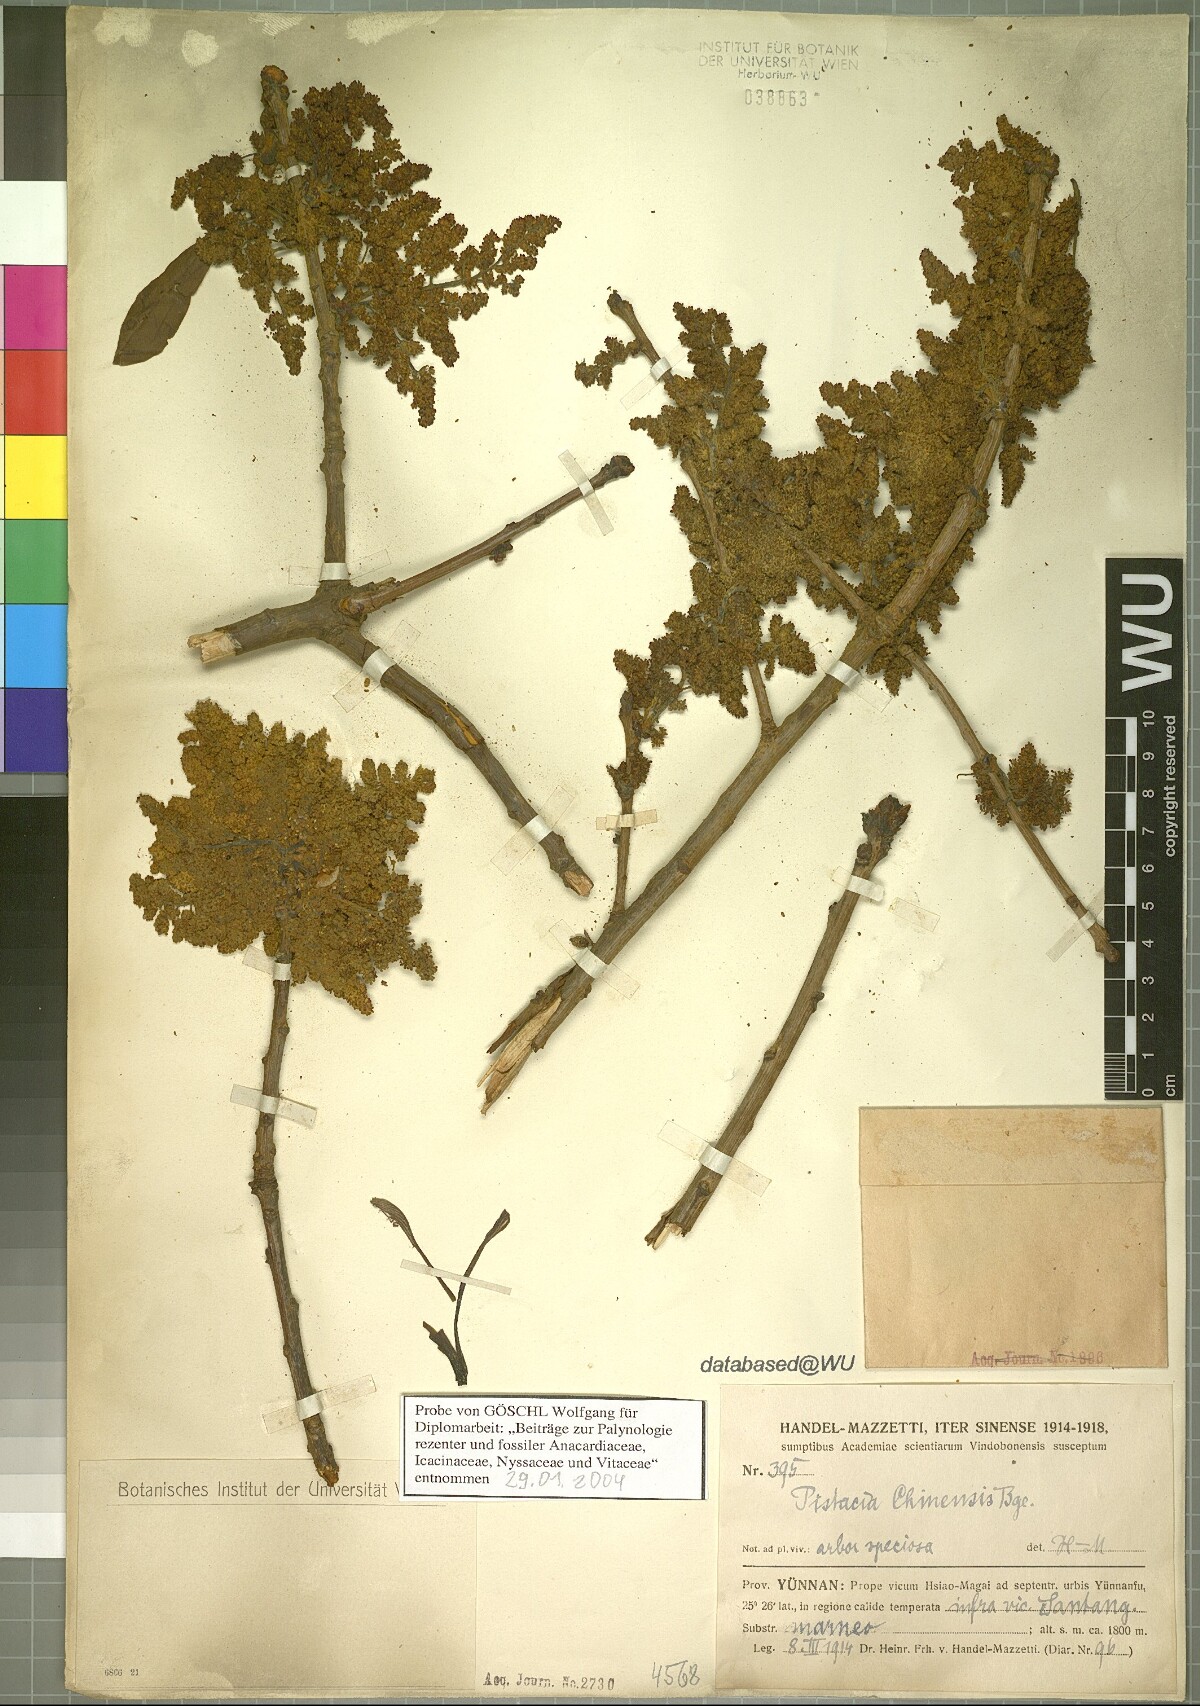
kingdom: Plantae
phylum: Tracheophyta
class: Magnoliopsida
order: Sapindales
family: Anacardiaceae
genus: Pistacia
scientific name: Pistacia chinensis
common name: Chinese pistache
